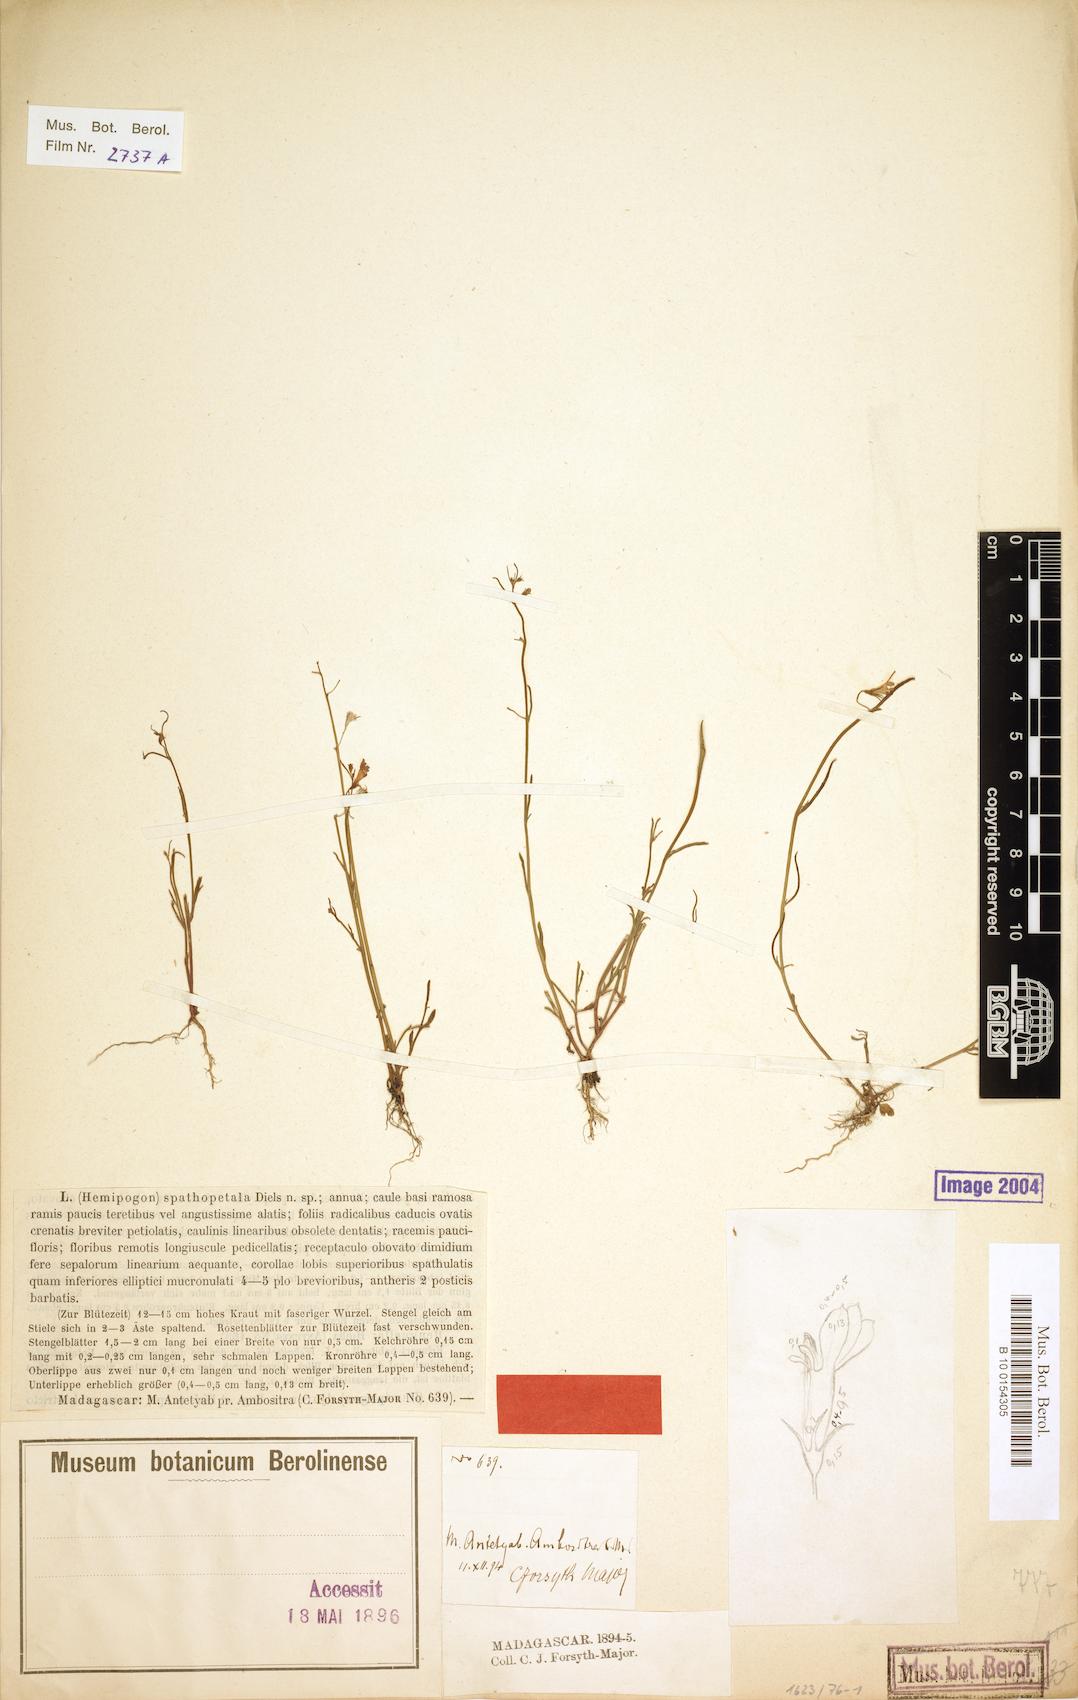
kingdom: Plantae
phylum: Tracheophyta
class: Magnoliopsida
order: Asterales
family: Campanulaceae
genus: Lobelia
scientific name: Lobelia spathopetala
